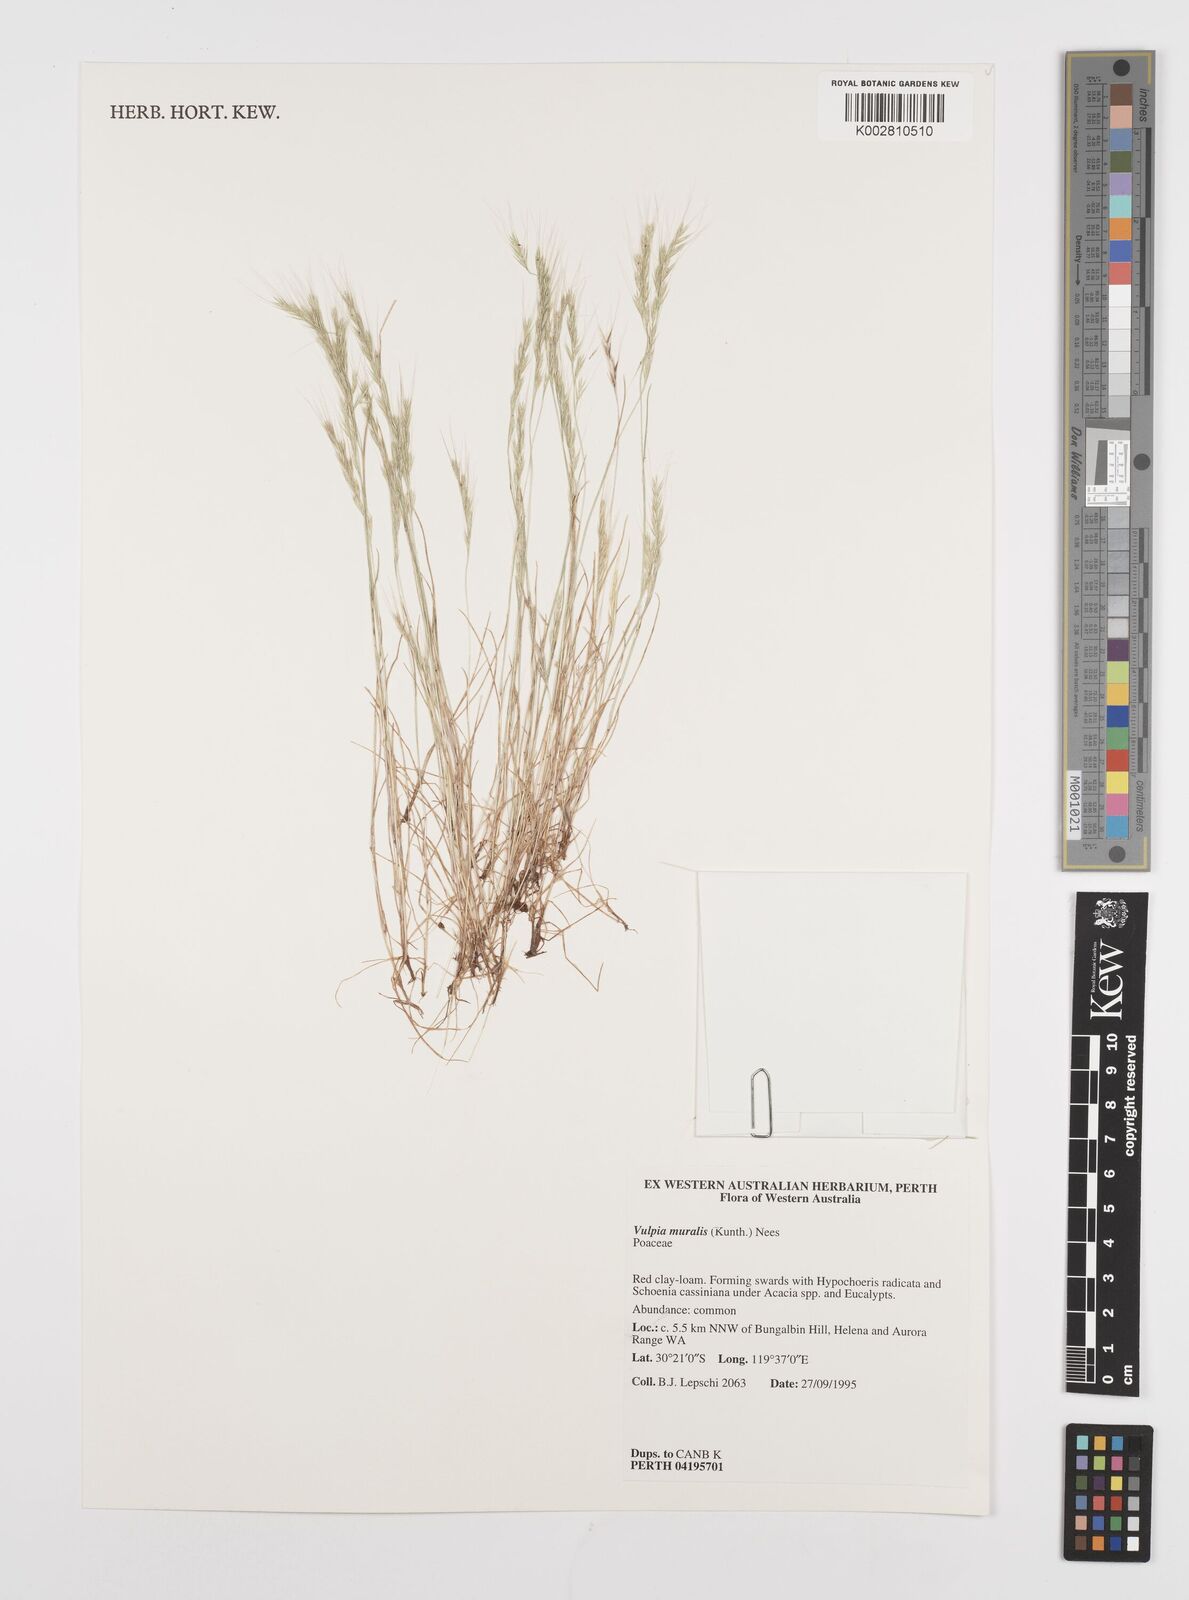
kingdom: Plantae
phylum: Tracheophyta
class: Liliopsida
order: Poales
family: Poaceae
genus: Festuca
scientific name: Festuca myuros
